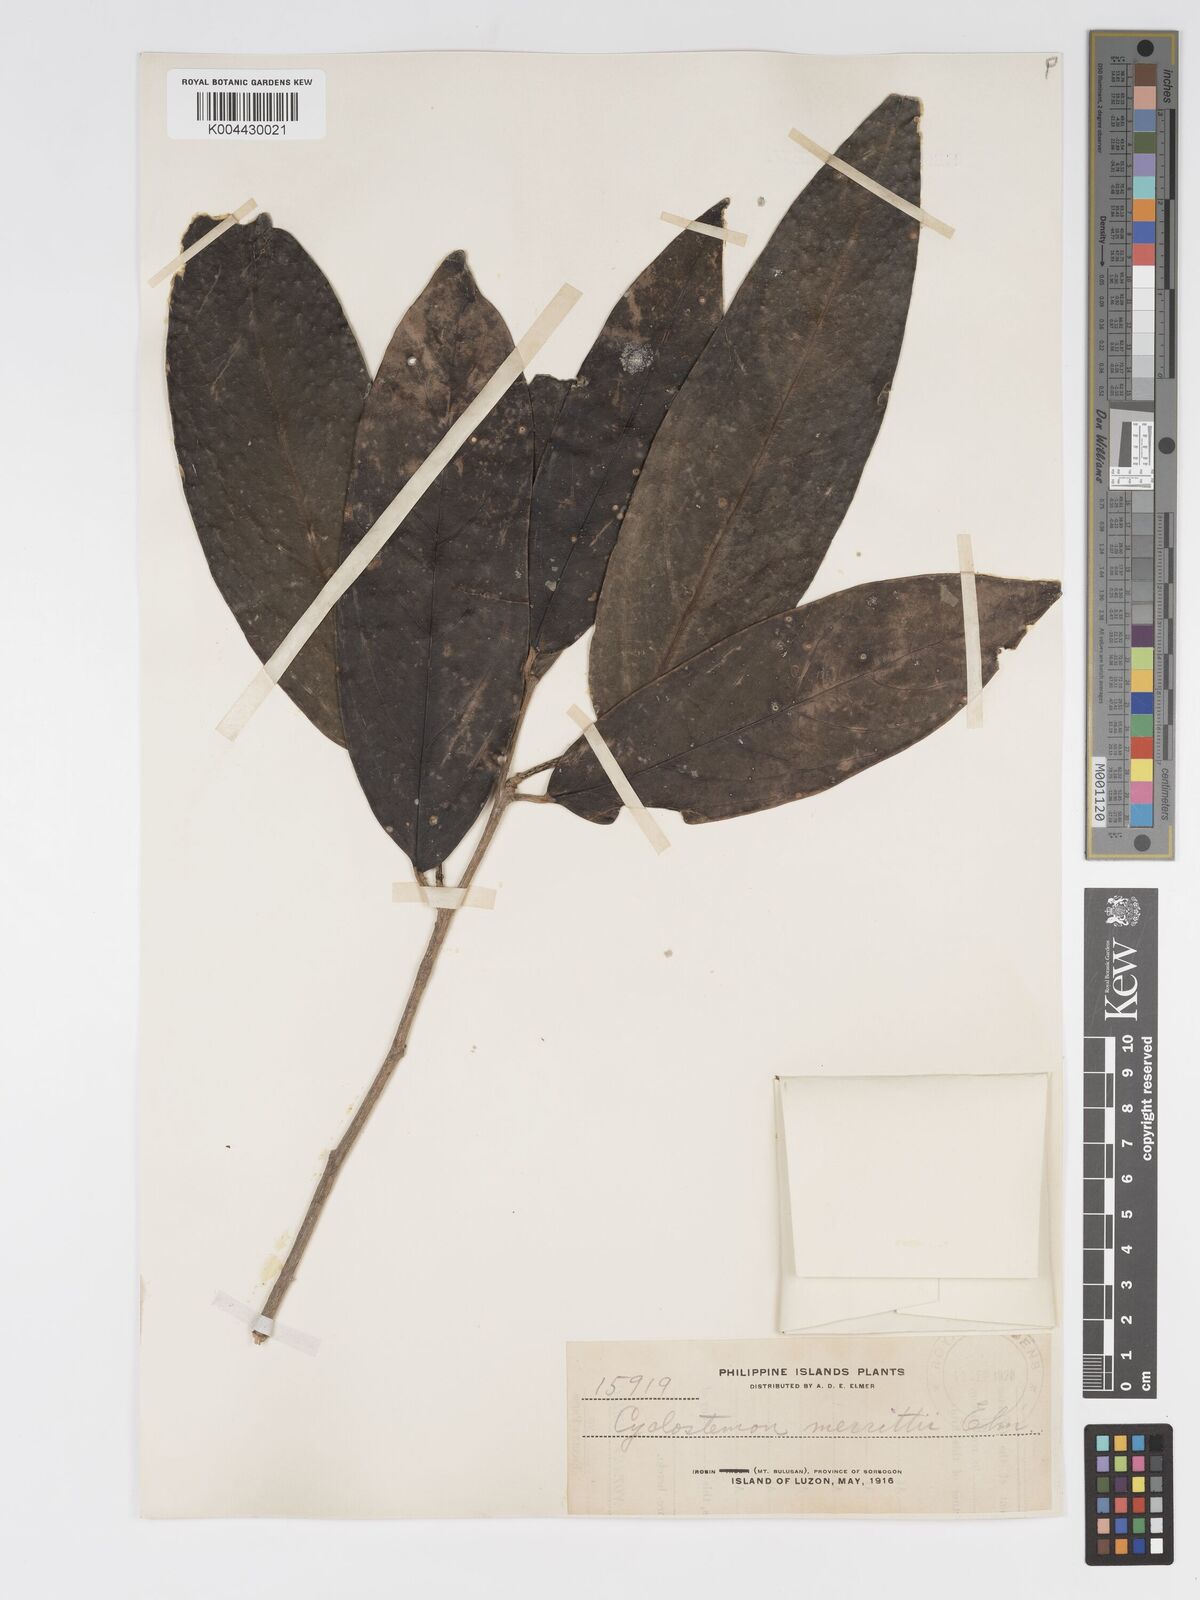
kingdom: Plantae
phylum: Tracheophyta
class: Magnoliopsida
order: Malpighiales
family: Putranjivaceae
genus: Drypetes
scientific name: Drypetes grandifolia
